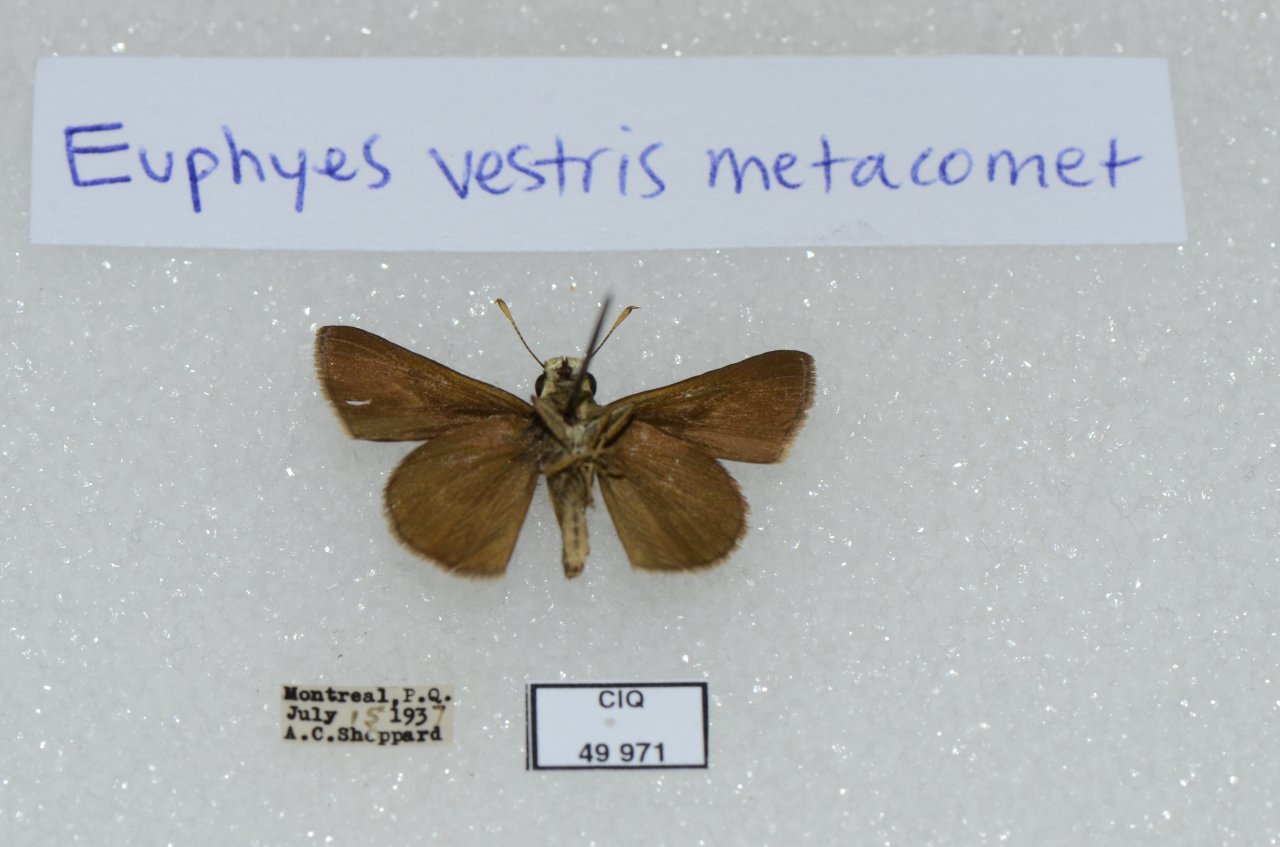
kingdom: Animalia
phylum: Arthropoda
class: Insecta
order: Lepidoptera
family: Hesperiidae
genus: Euphyes
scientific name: Euphyes vestris
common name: Dun Skipper
